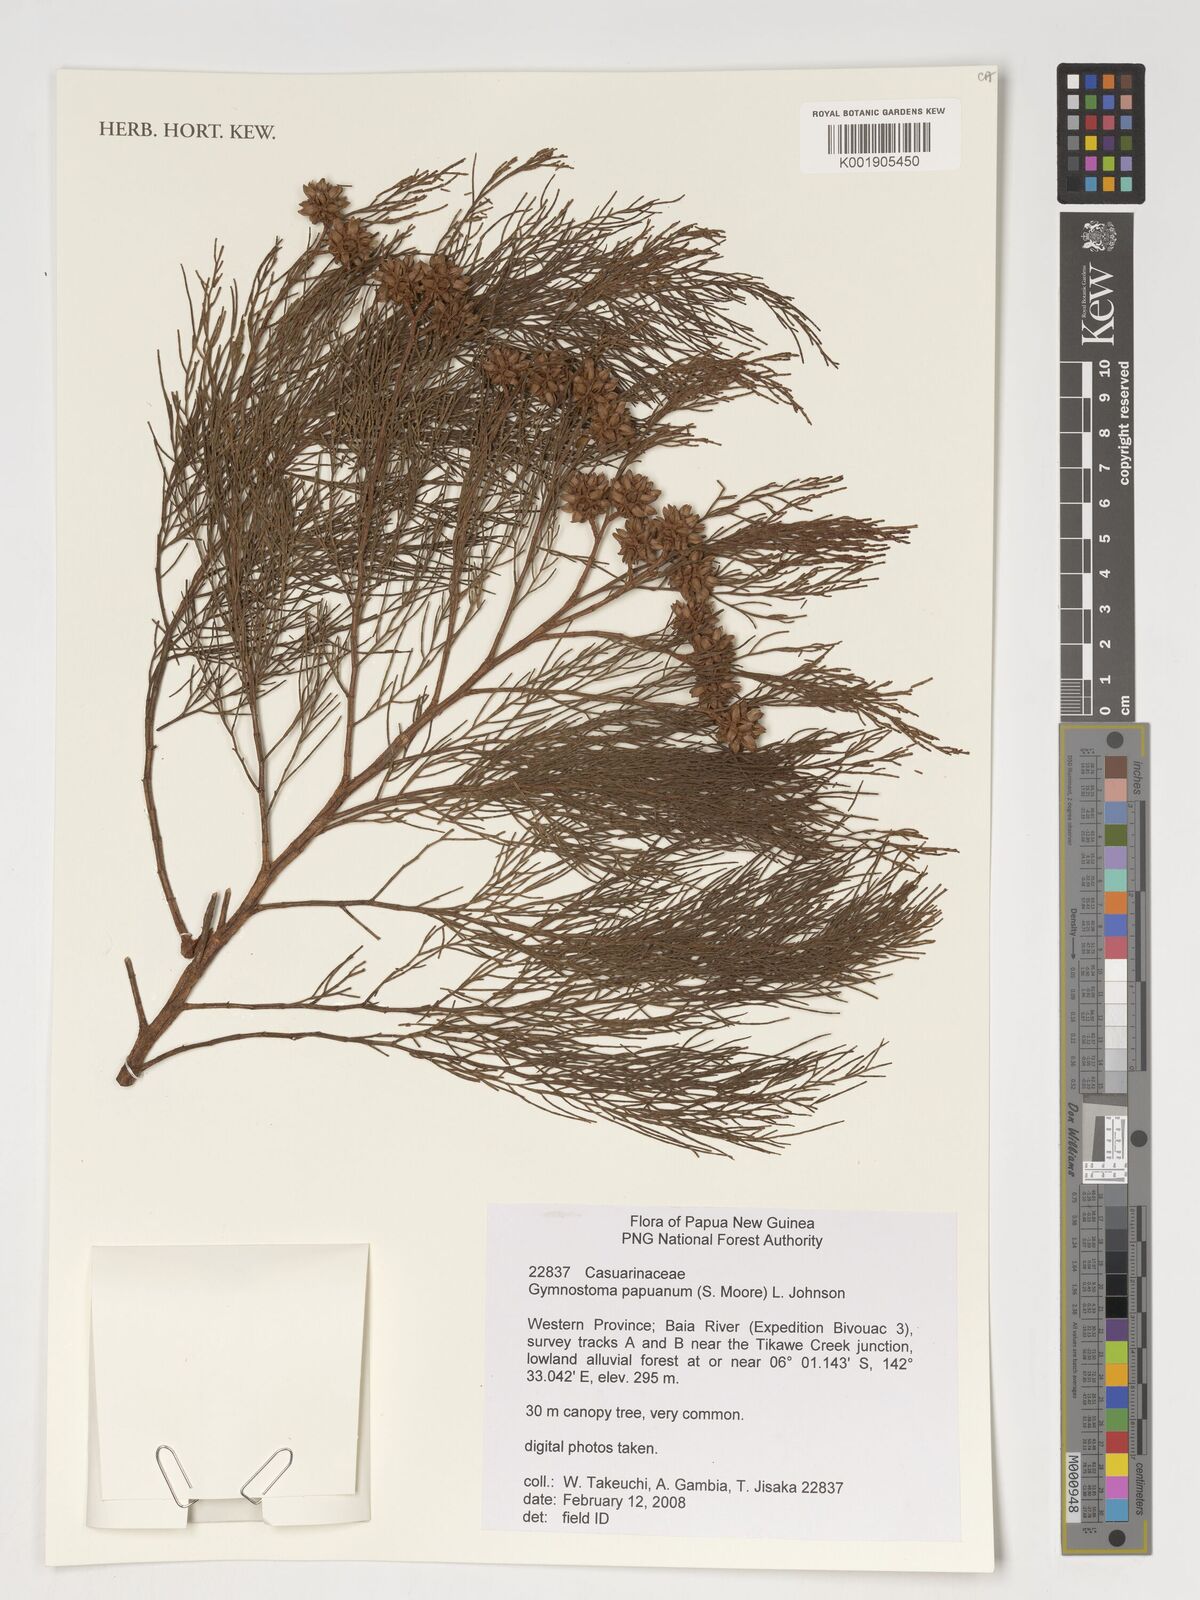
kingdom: Plantae
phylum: Tracheophyta
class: Magnoliopsida
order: Fagales
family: Casuarinaceae
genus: Gymnostoma
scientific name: Gymnostoma papuanum
